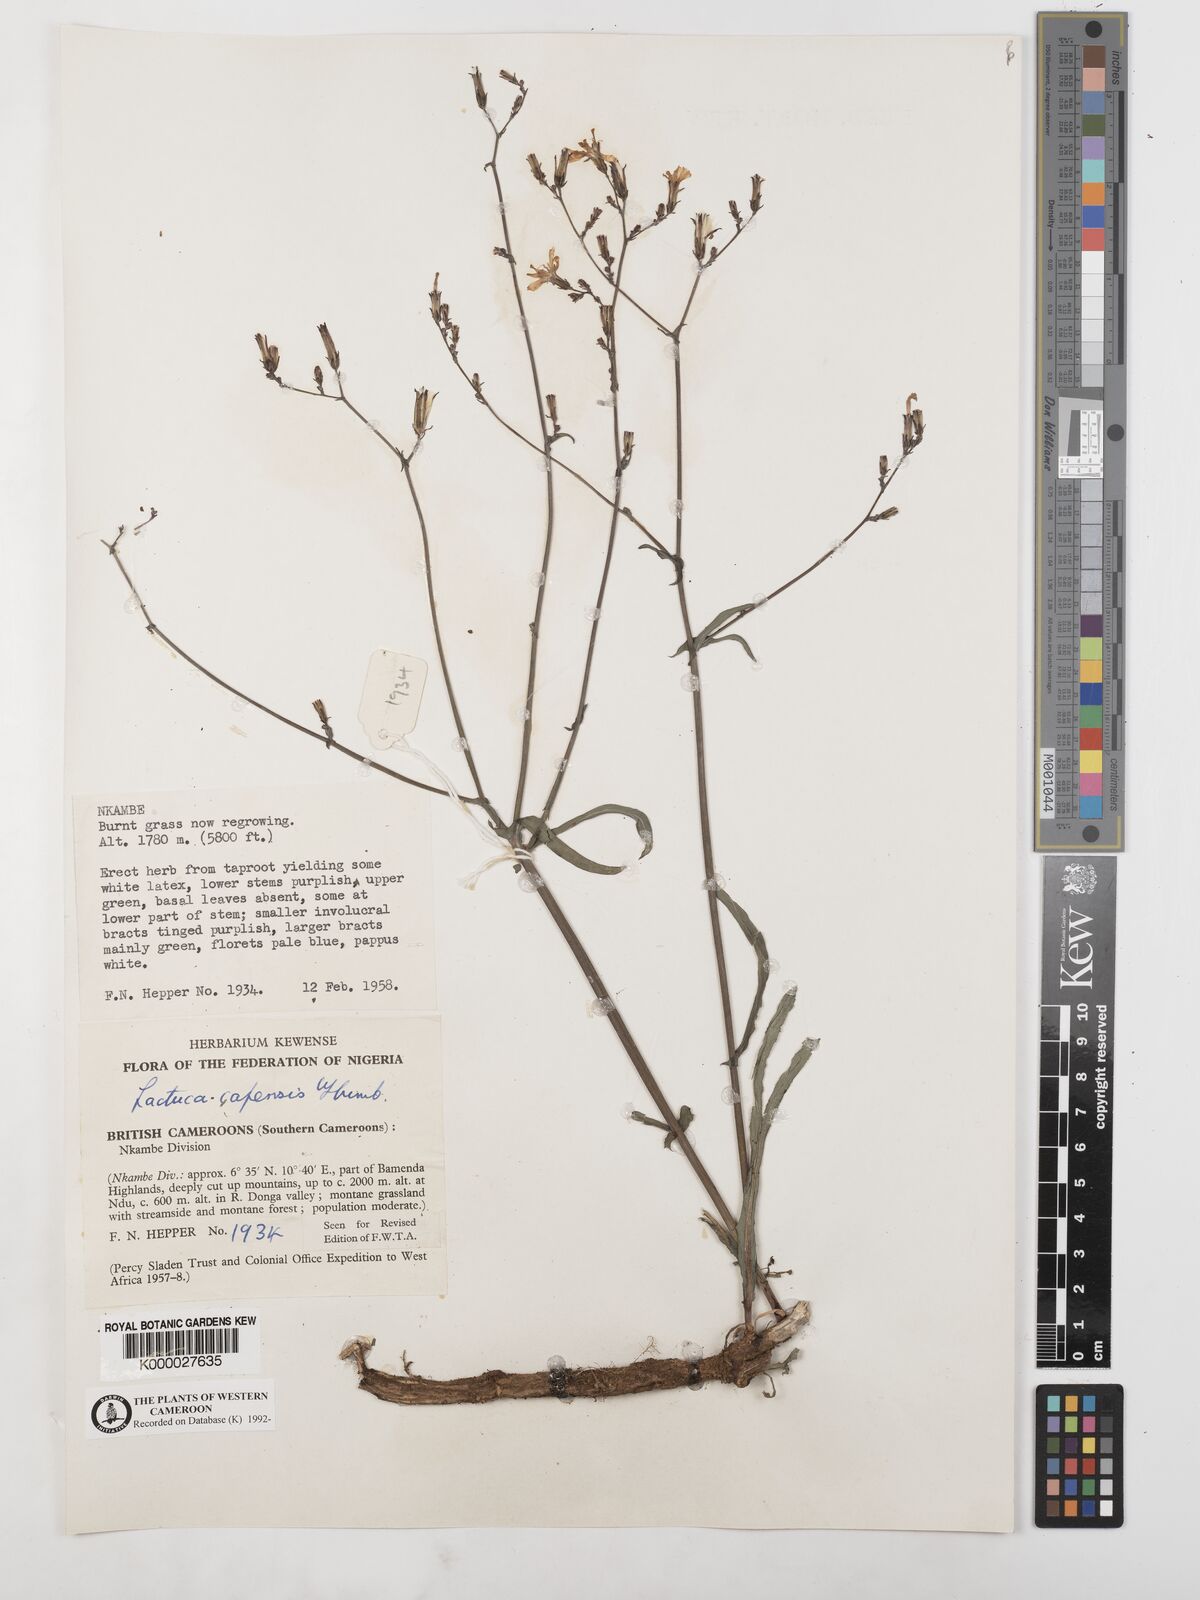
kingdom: Plantae
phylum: Tracheophyta
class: Magnoliopsida
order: Asterales
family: Asteraceae
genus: Lactuca
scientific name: Lactuca inermis
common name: Wild lettuce
